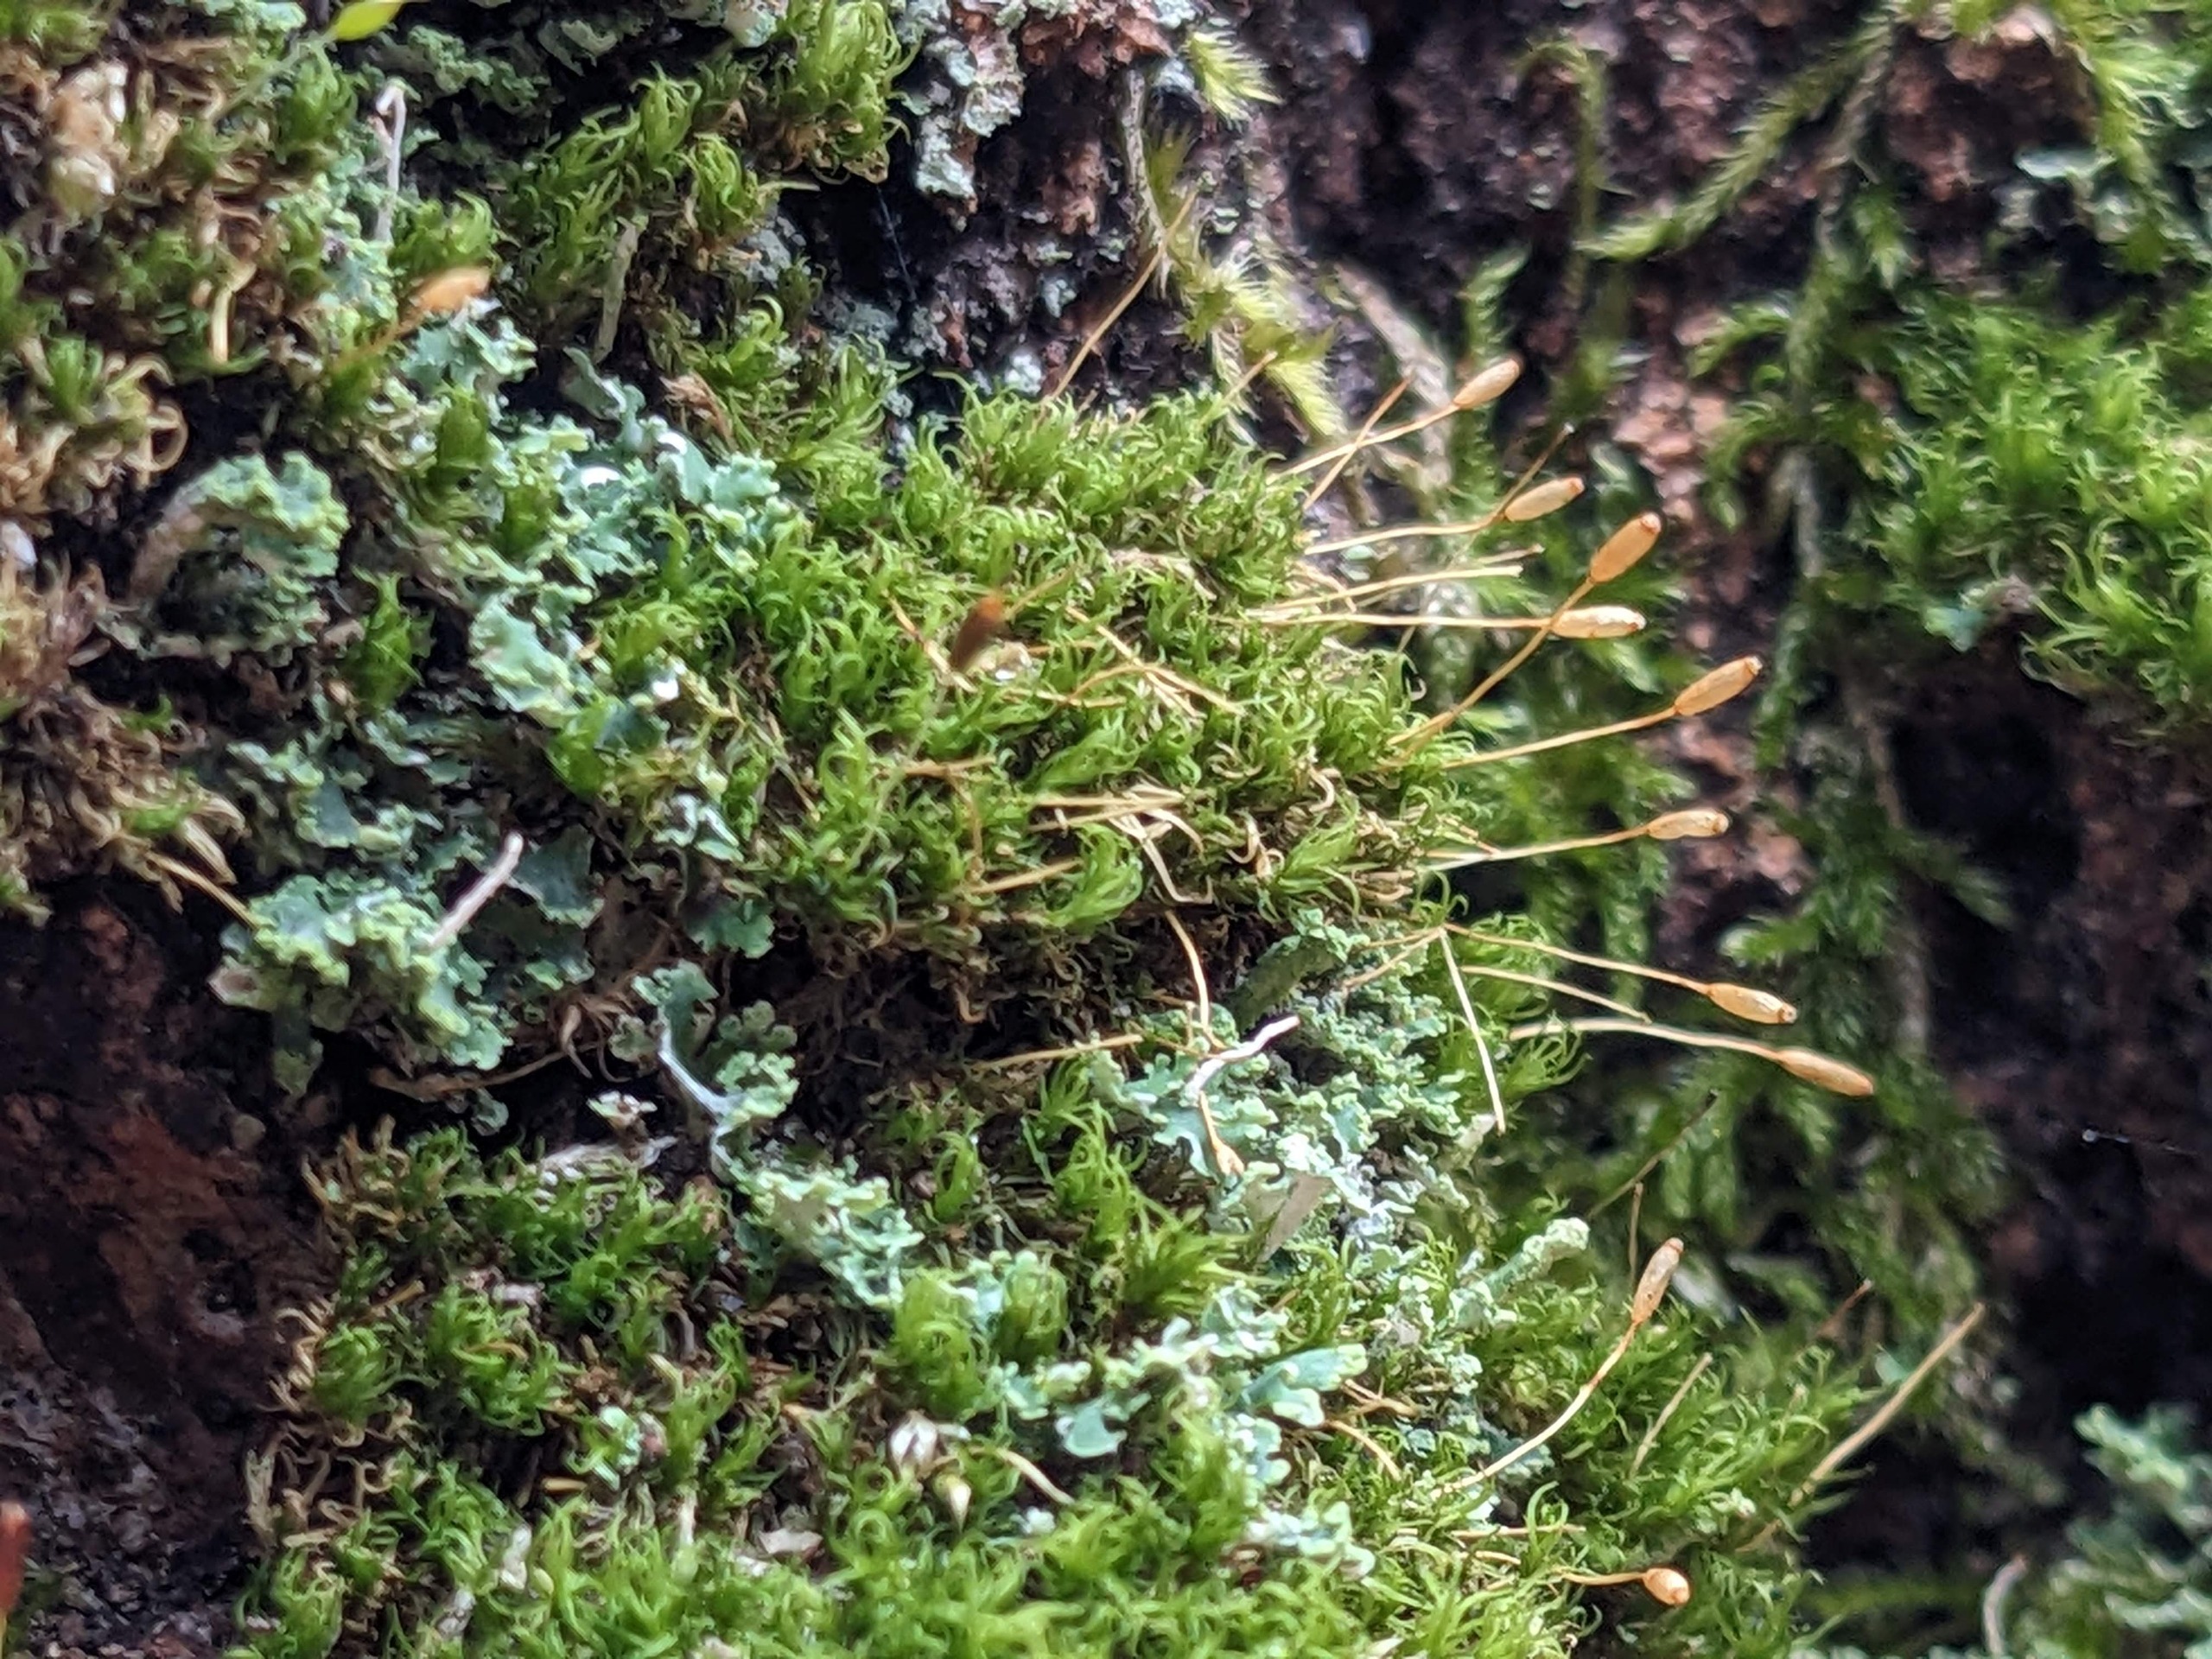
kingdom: Plantae
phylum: Bryophyta
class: Bryopsida
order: Dicranales
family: Rhabdoweisiaceae
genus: Dicranoweisia
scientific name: Dicranoweisia cirrata
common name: Almindelig krøltuemos
